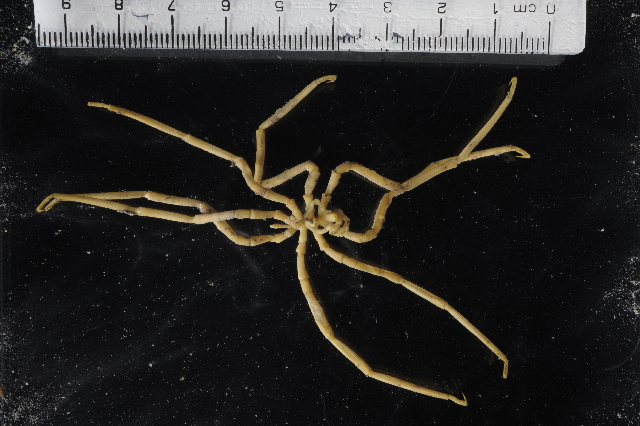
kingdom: Animalia
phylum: Arthropoda
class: Pycnogonida
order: Pantopoda
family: Pallenopsidae
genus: Pallenopsis
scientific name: Pallenopsis latefrontalis
